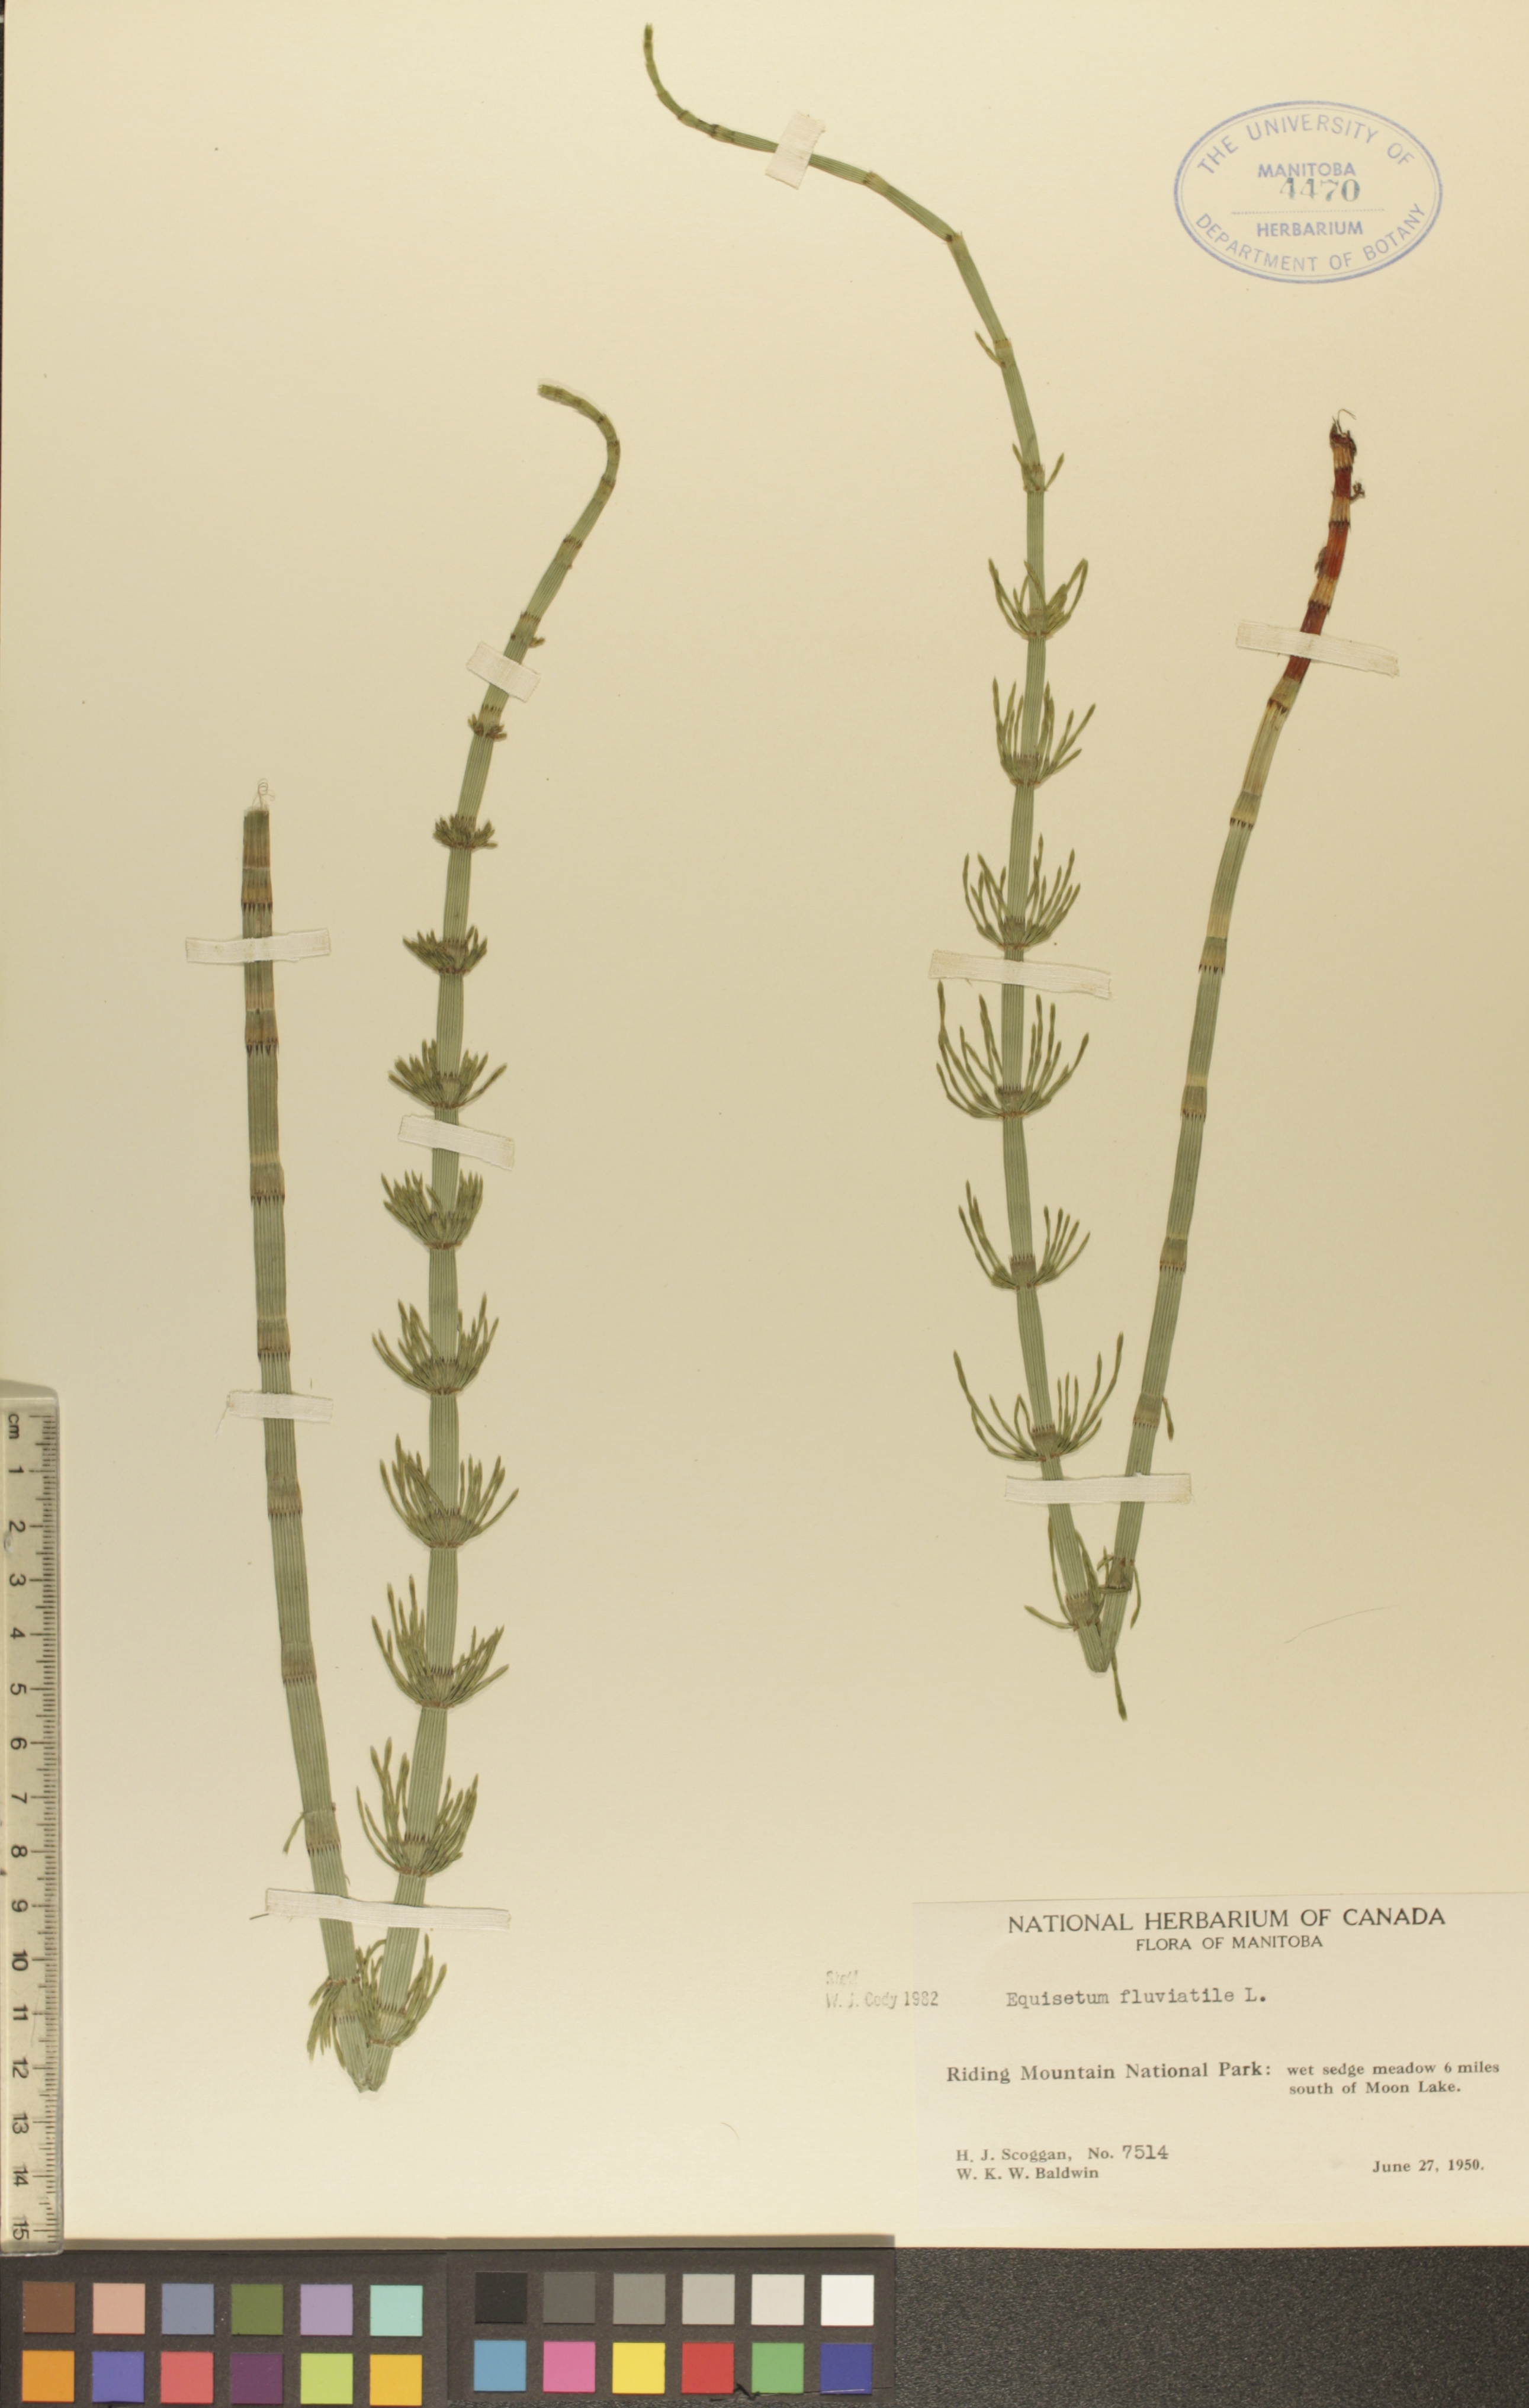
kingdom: Plantae
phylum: Tracheophyta
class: Polypodiopsida
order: Equisetales
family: Equisetaceae
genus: Equisetum
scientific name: Equisetum fluviatile
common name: Water horsetail
